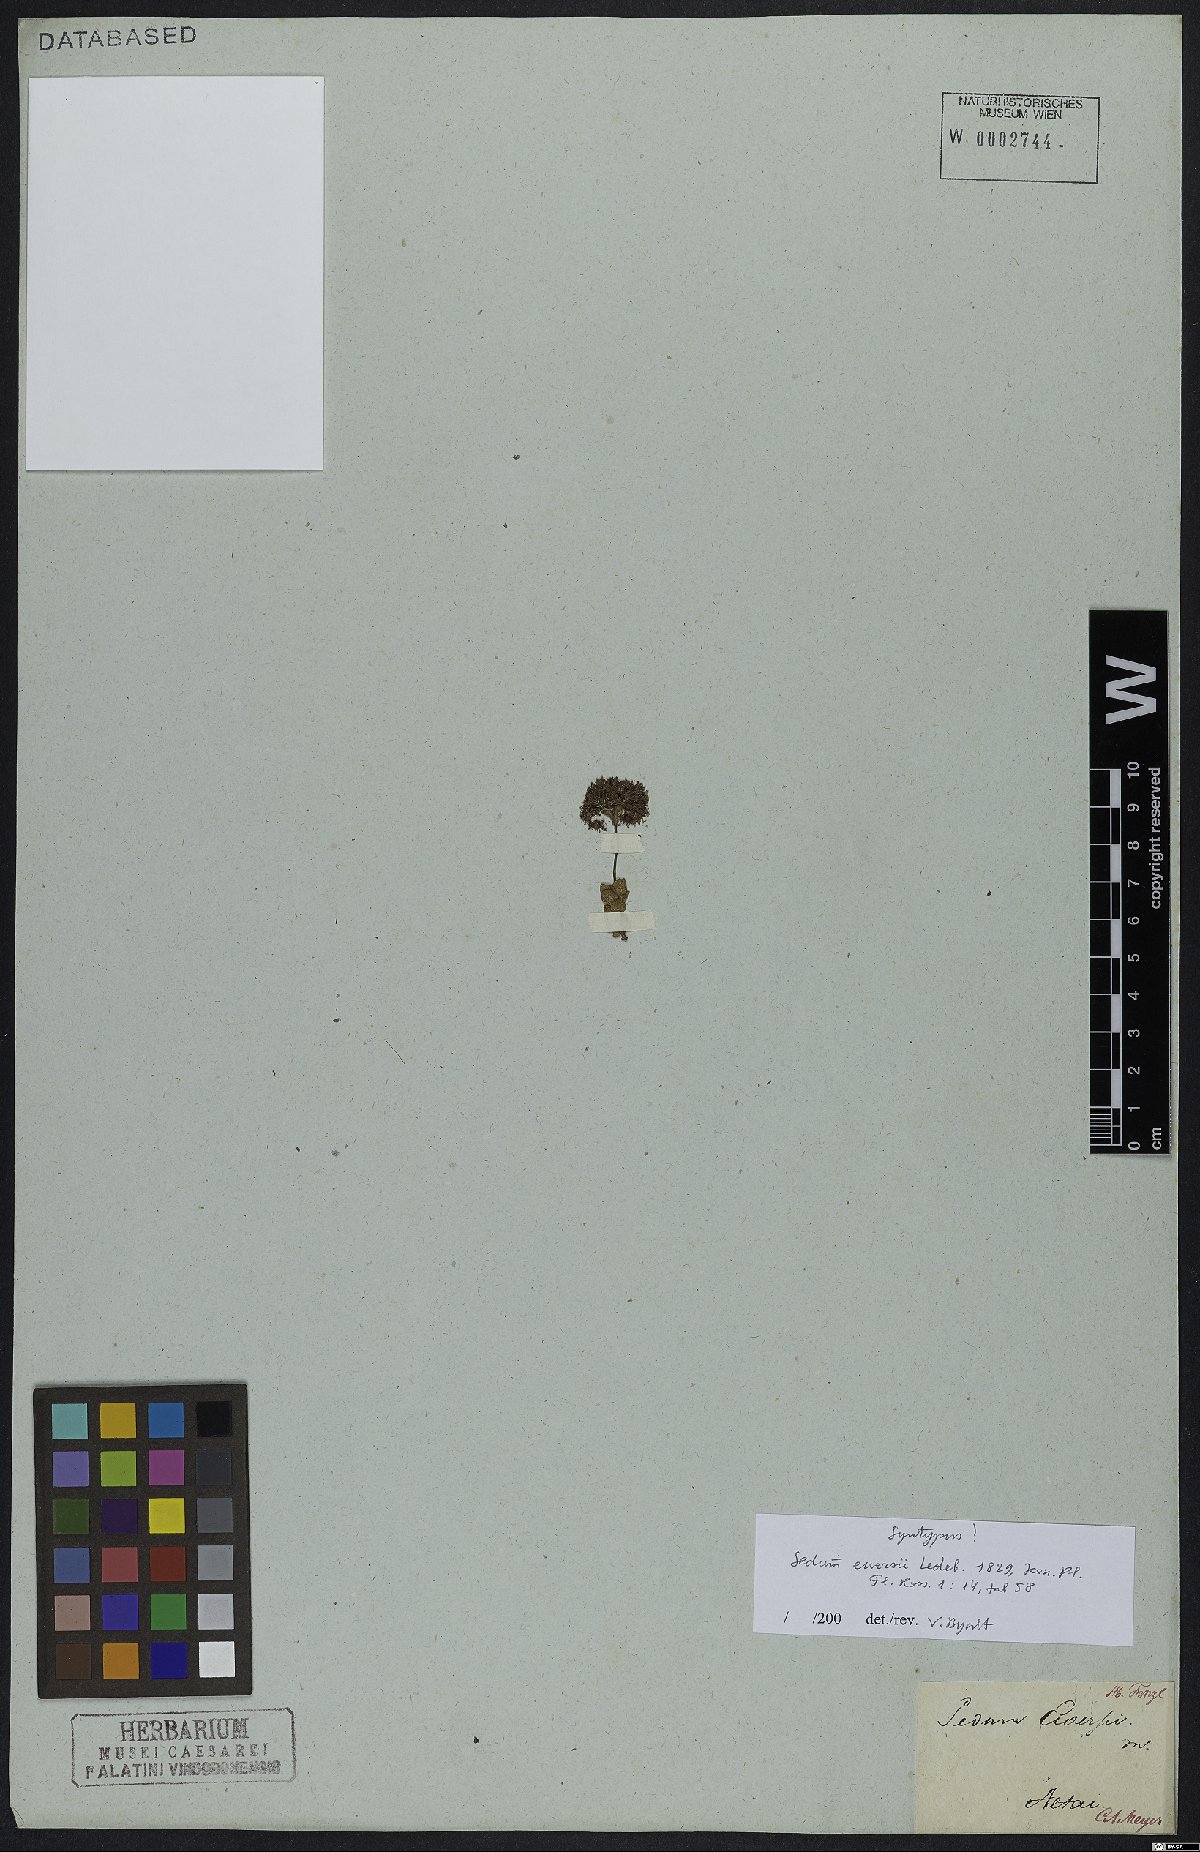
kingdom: Plantae
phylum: Tracheophyta
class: Magnoliopsida
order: Saxifragales
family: Crassulaceae
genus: Hylotelephium
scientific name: Hylotelephium ewersii
